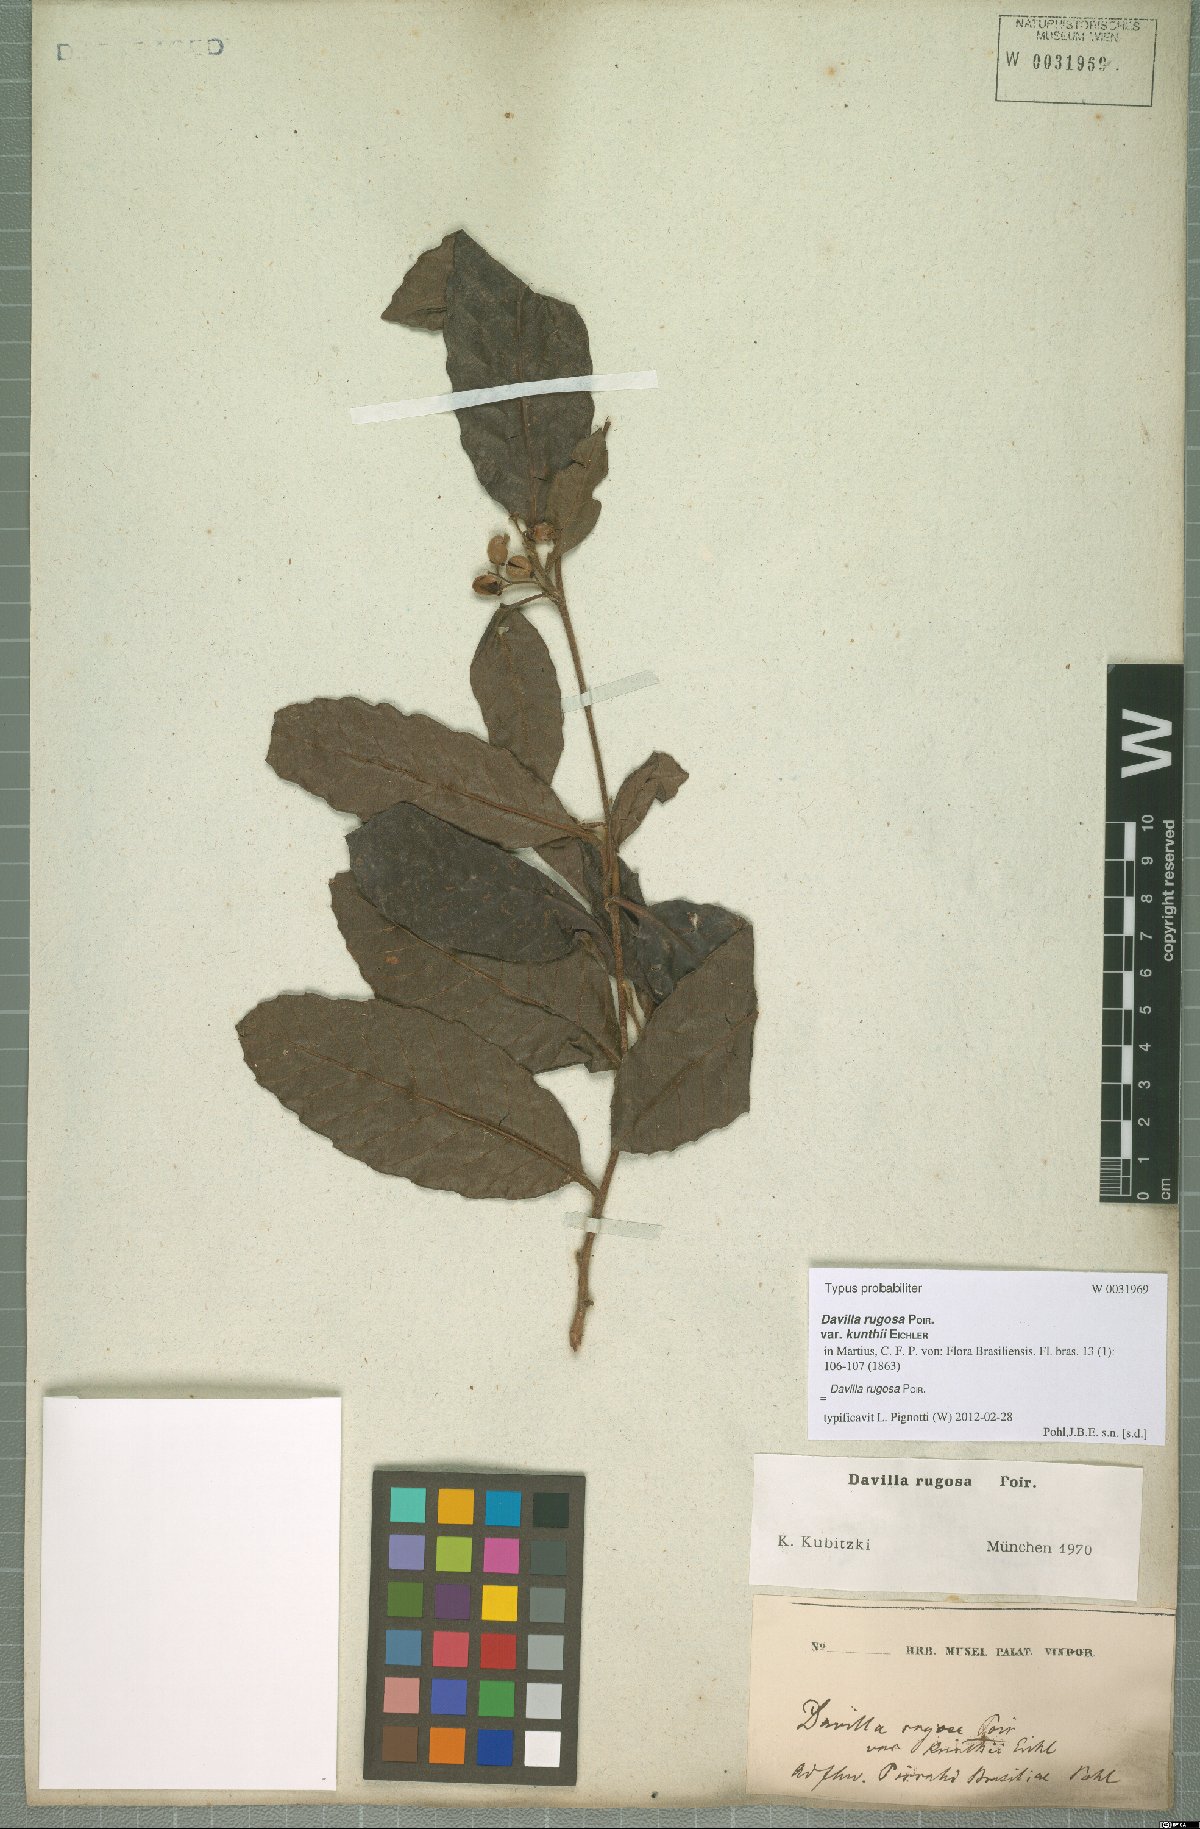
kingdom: Plantae
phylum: Tracheophyta
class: Magnoliopsida
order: Dilleniales
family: Dilleniaceae
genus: Davilla
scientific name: Davilla rugosa
